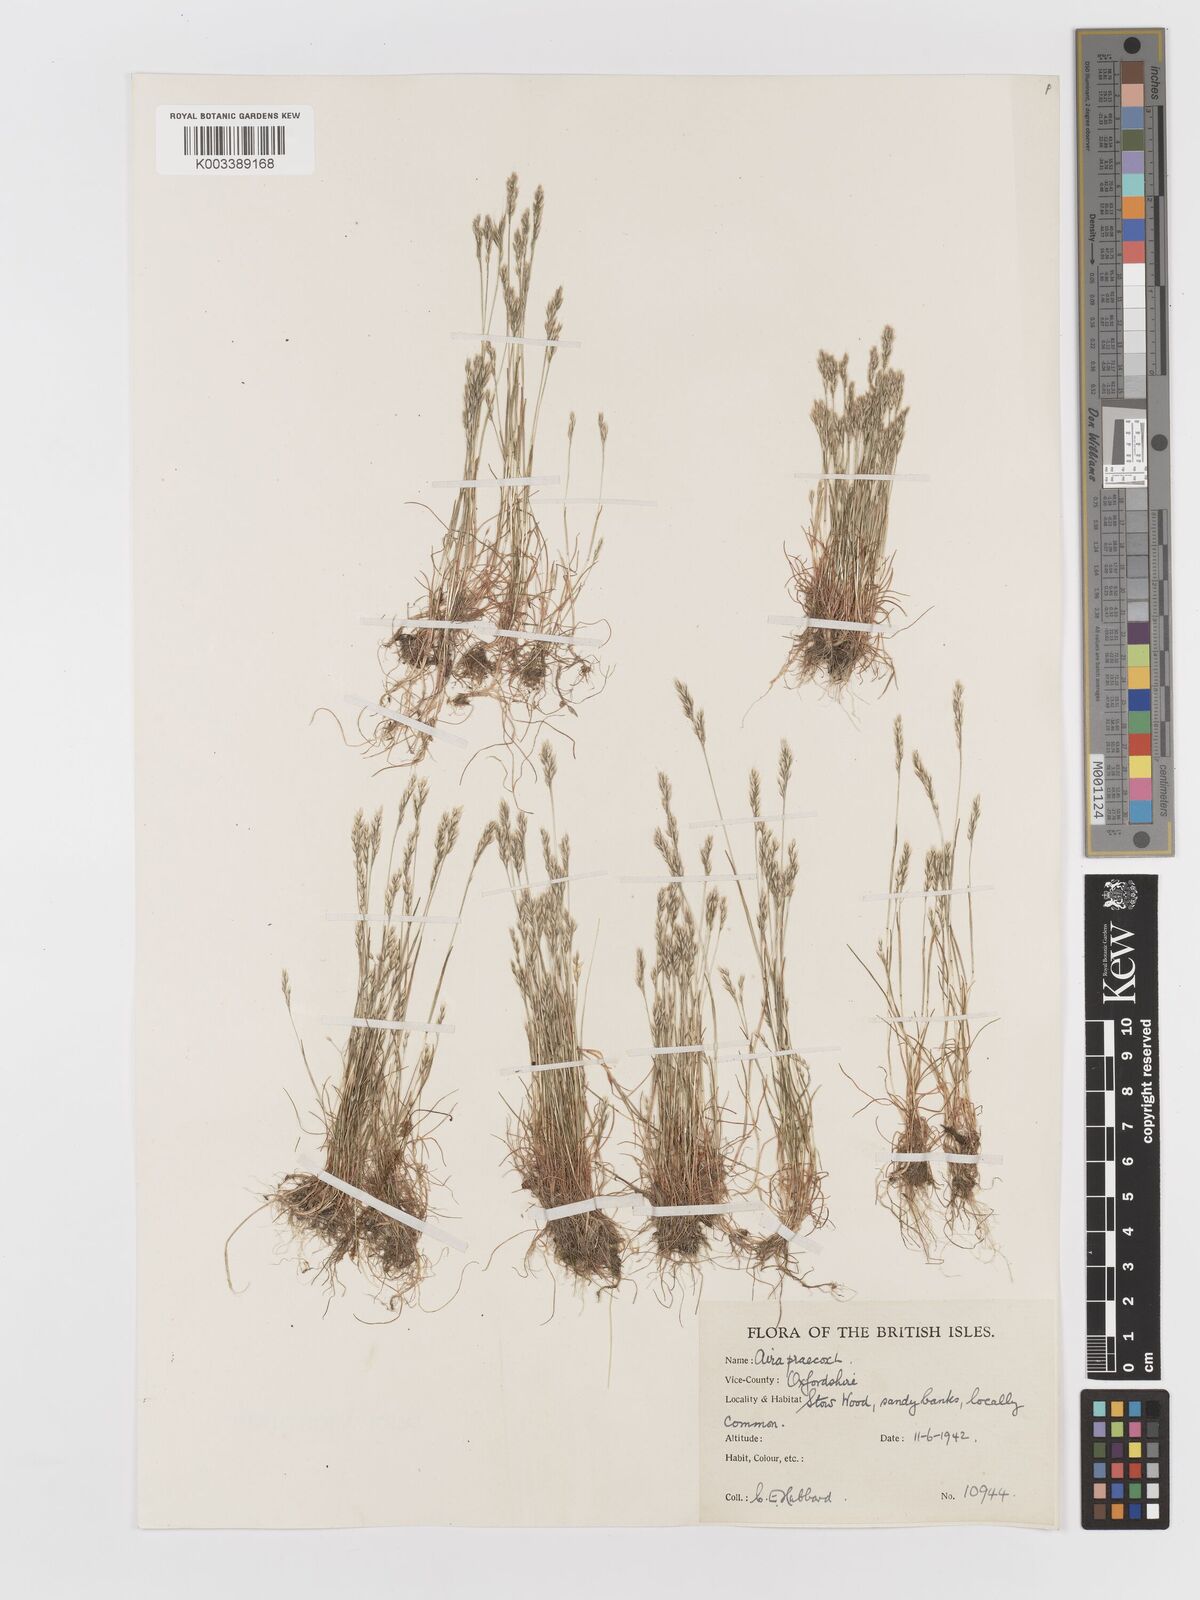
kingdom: Plantae
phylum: Tracheophyta
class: Liliopsida
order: Poales
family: Poaceae
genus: Aira
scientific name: Aira praecox
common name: Early hair-grass
